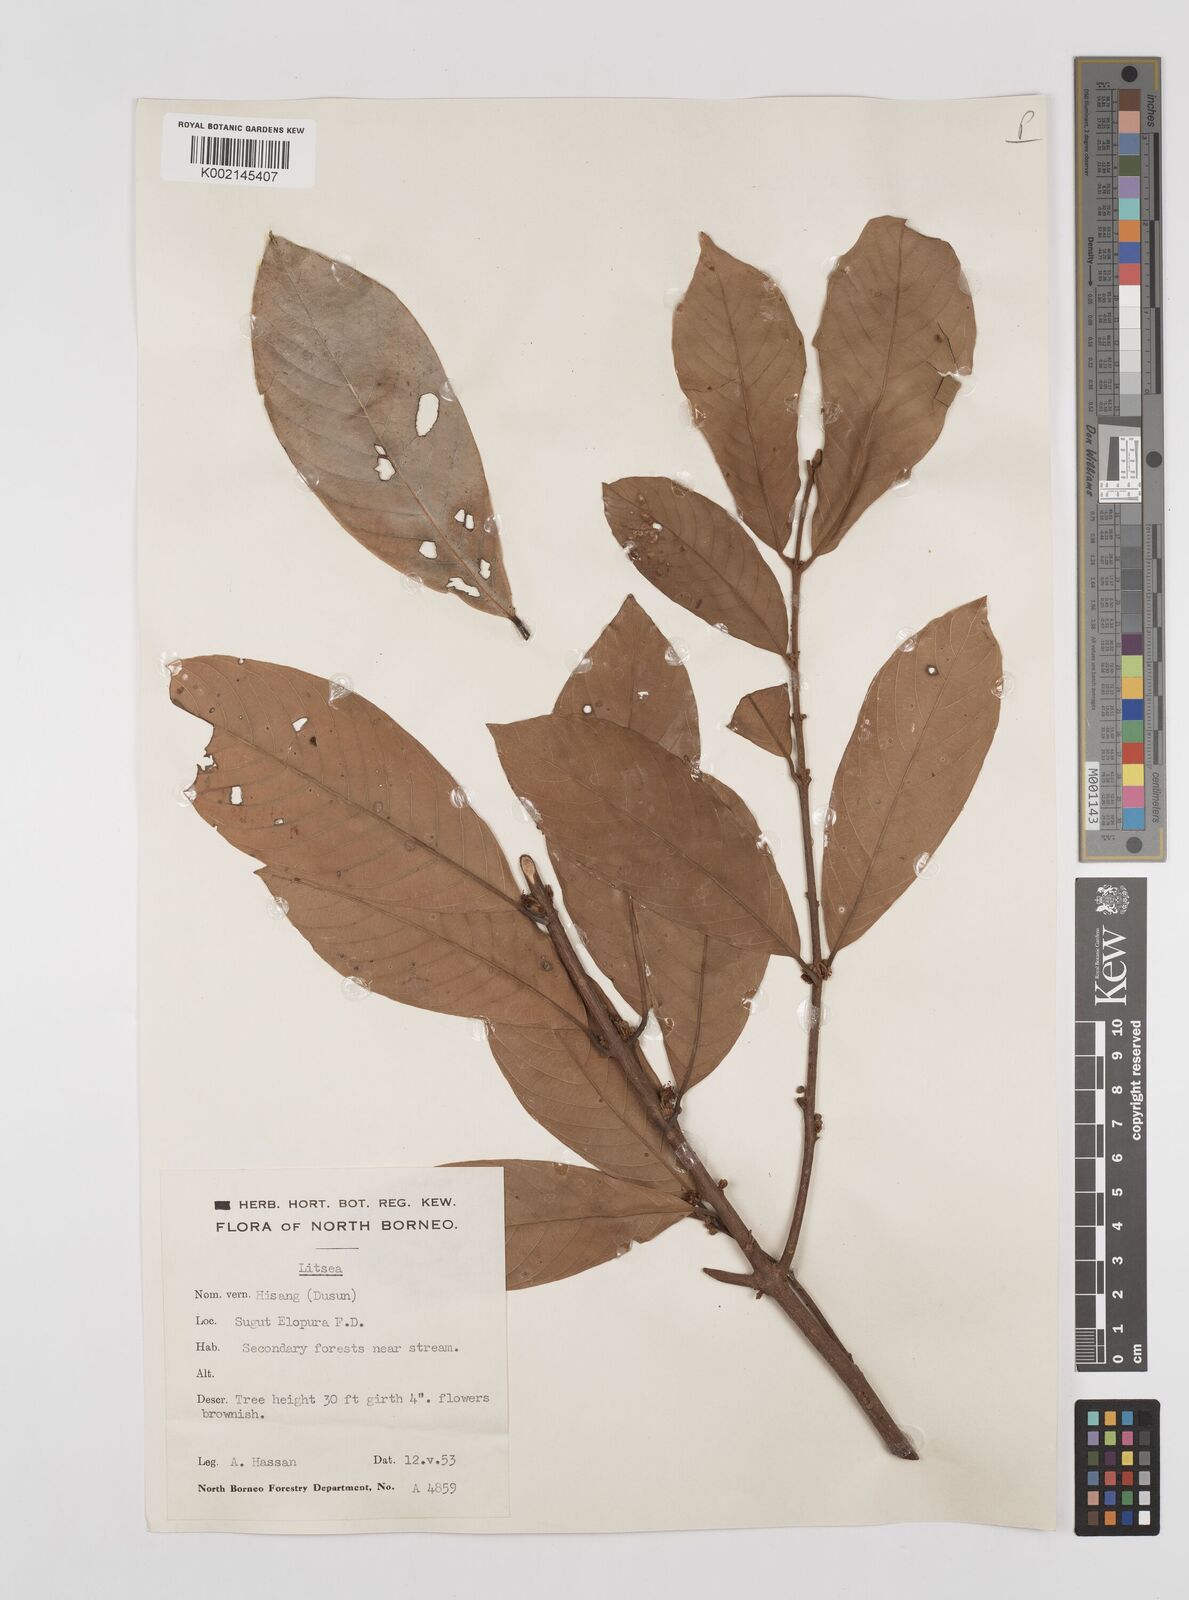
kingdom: Plantae
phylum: Tracheophyta
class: Magnoliopsida
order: Laurales
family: Lauraceae
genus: Litsea
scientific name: Litsea
